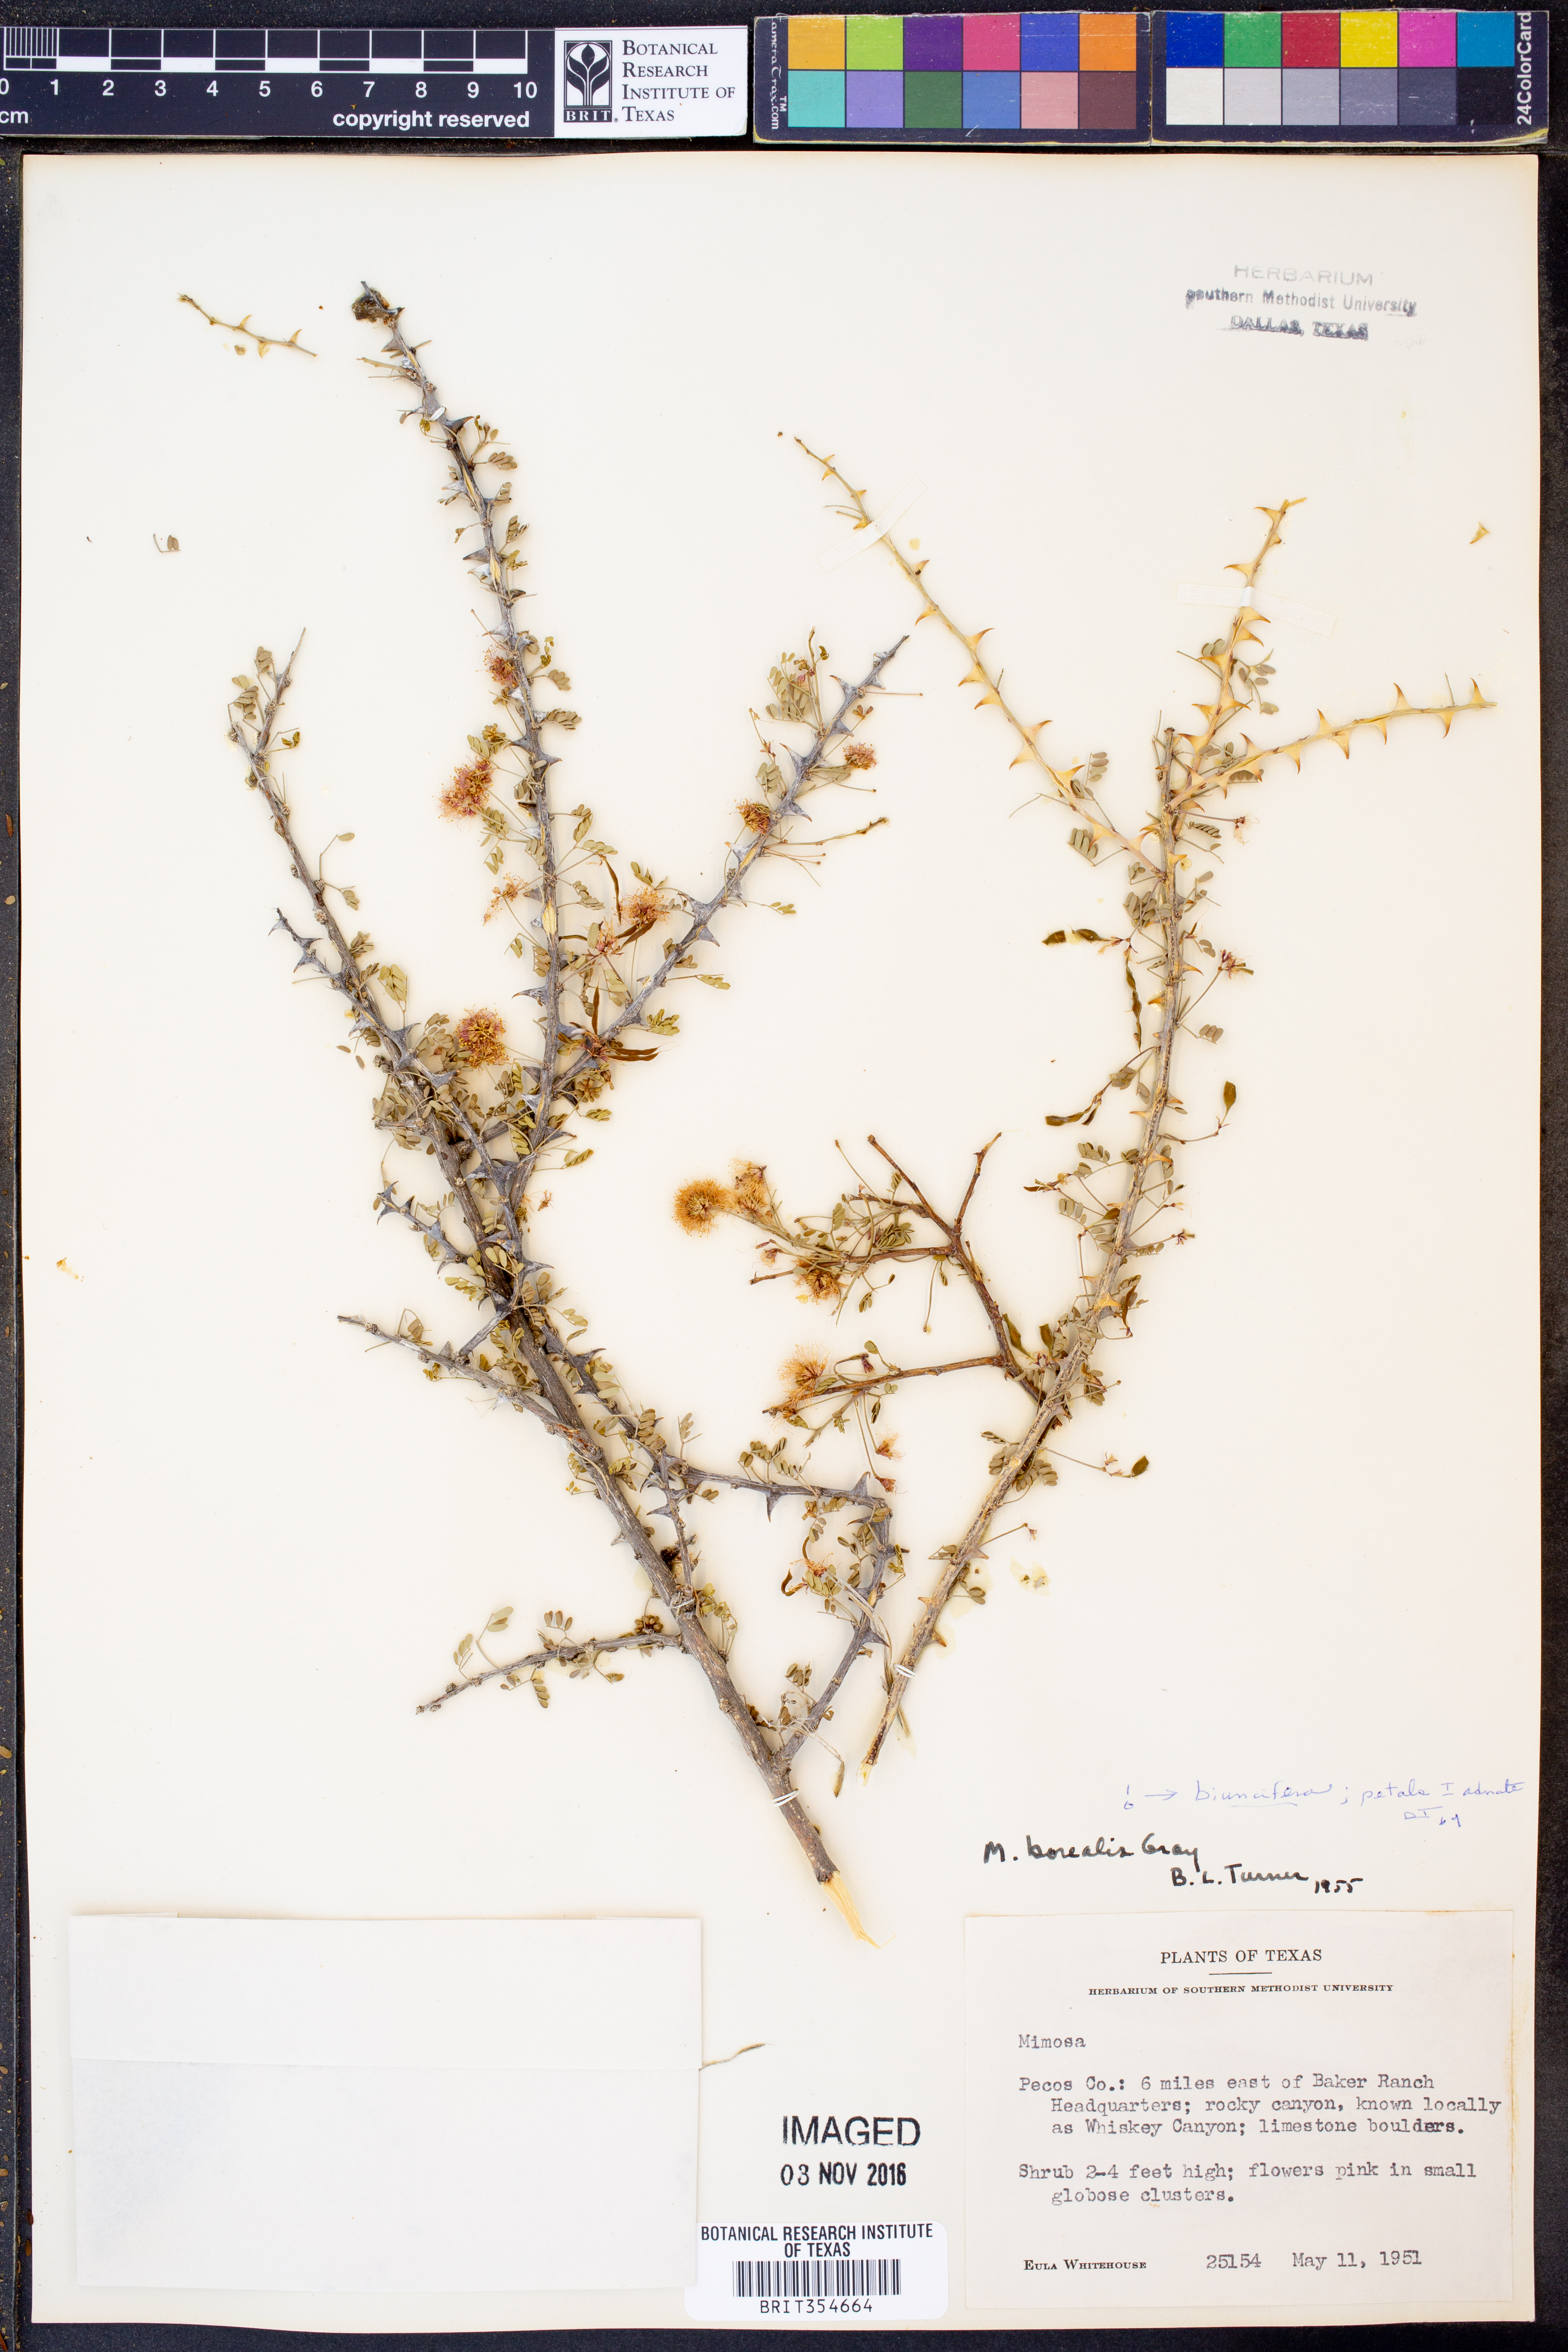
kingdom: Plantae
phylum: Tracheophyta
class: Magnoliopsida
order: Fabales
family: Fabaceae
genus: Mimosa
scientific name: Mimosa biuncifera
